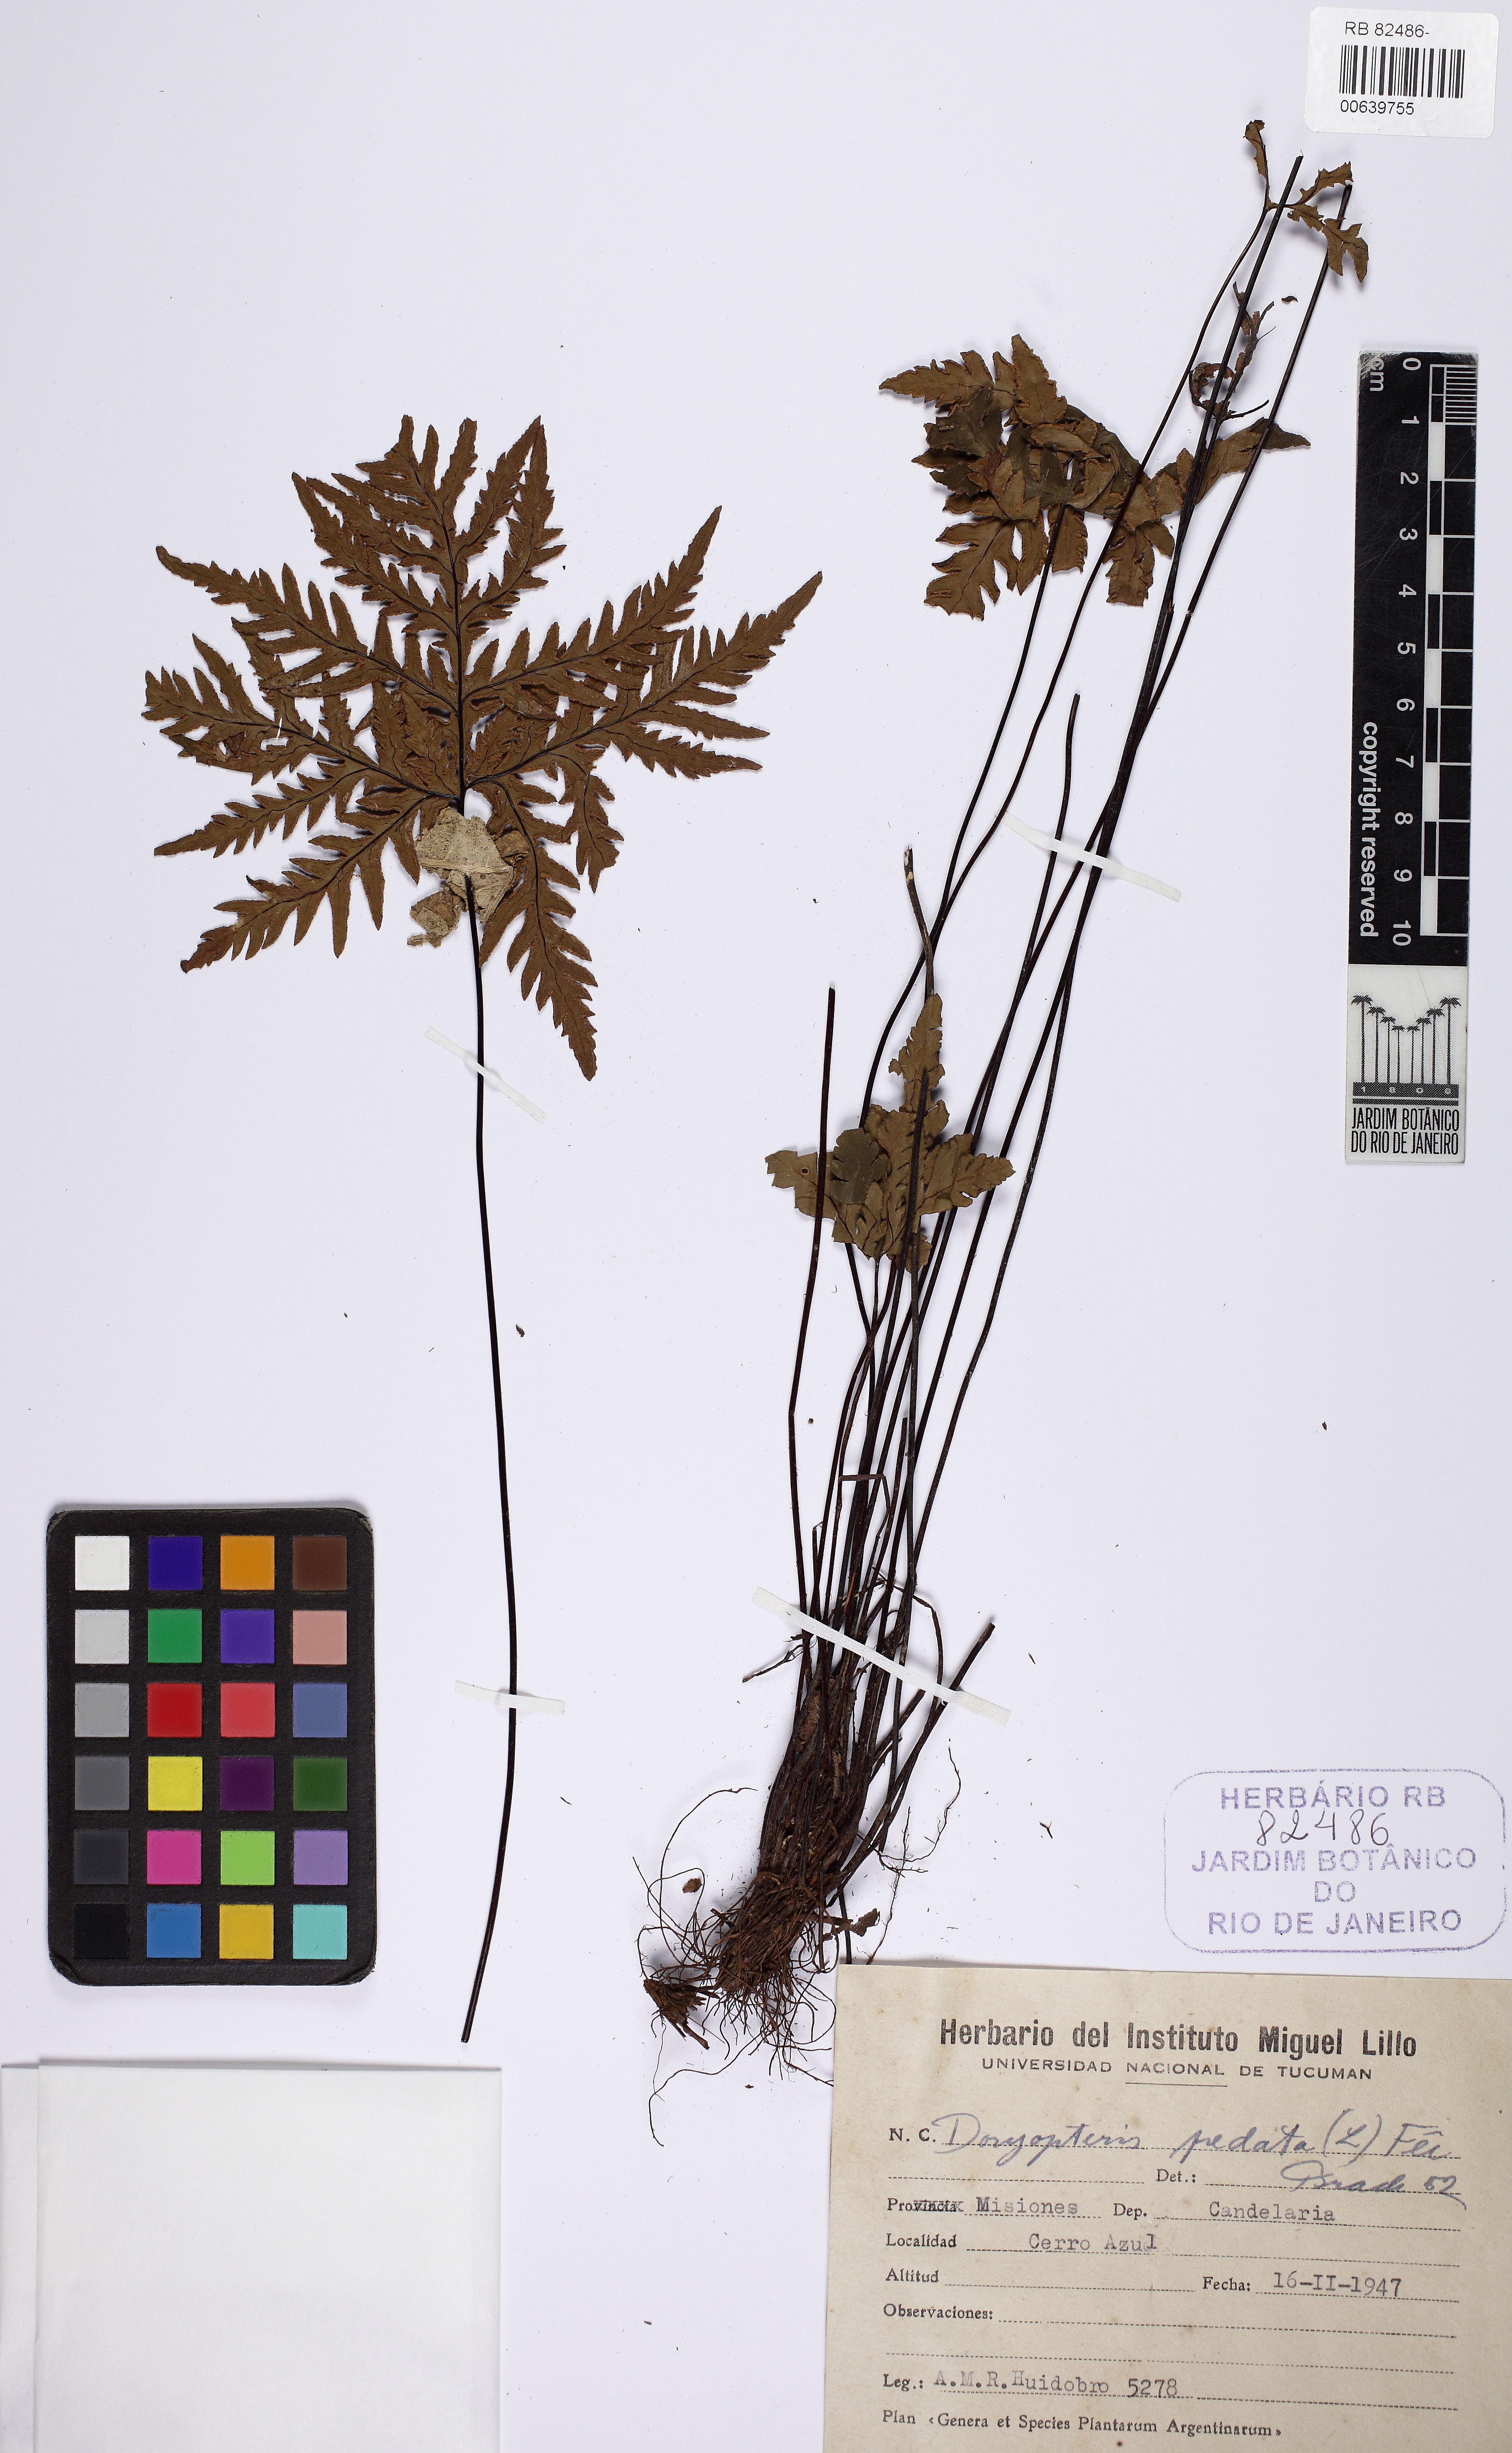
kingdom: Plantae
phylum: Tracheophyta
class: Polypodiopsida
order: Polypodiales
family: Pteridaceae
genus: Doryopteris
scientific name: Doryopteris pentagona
